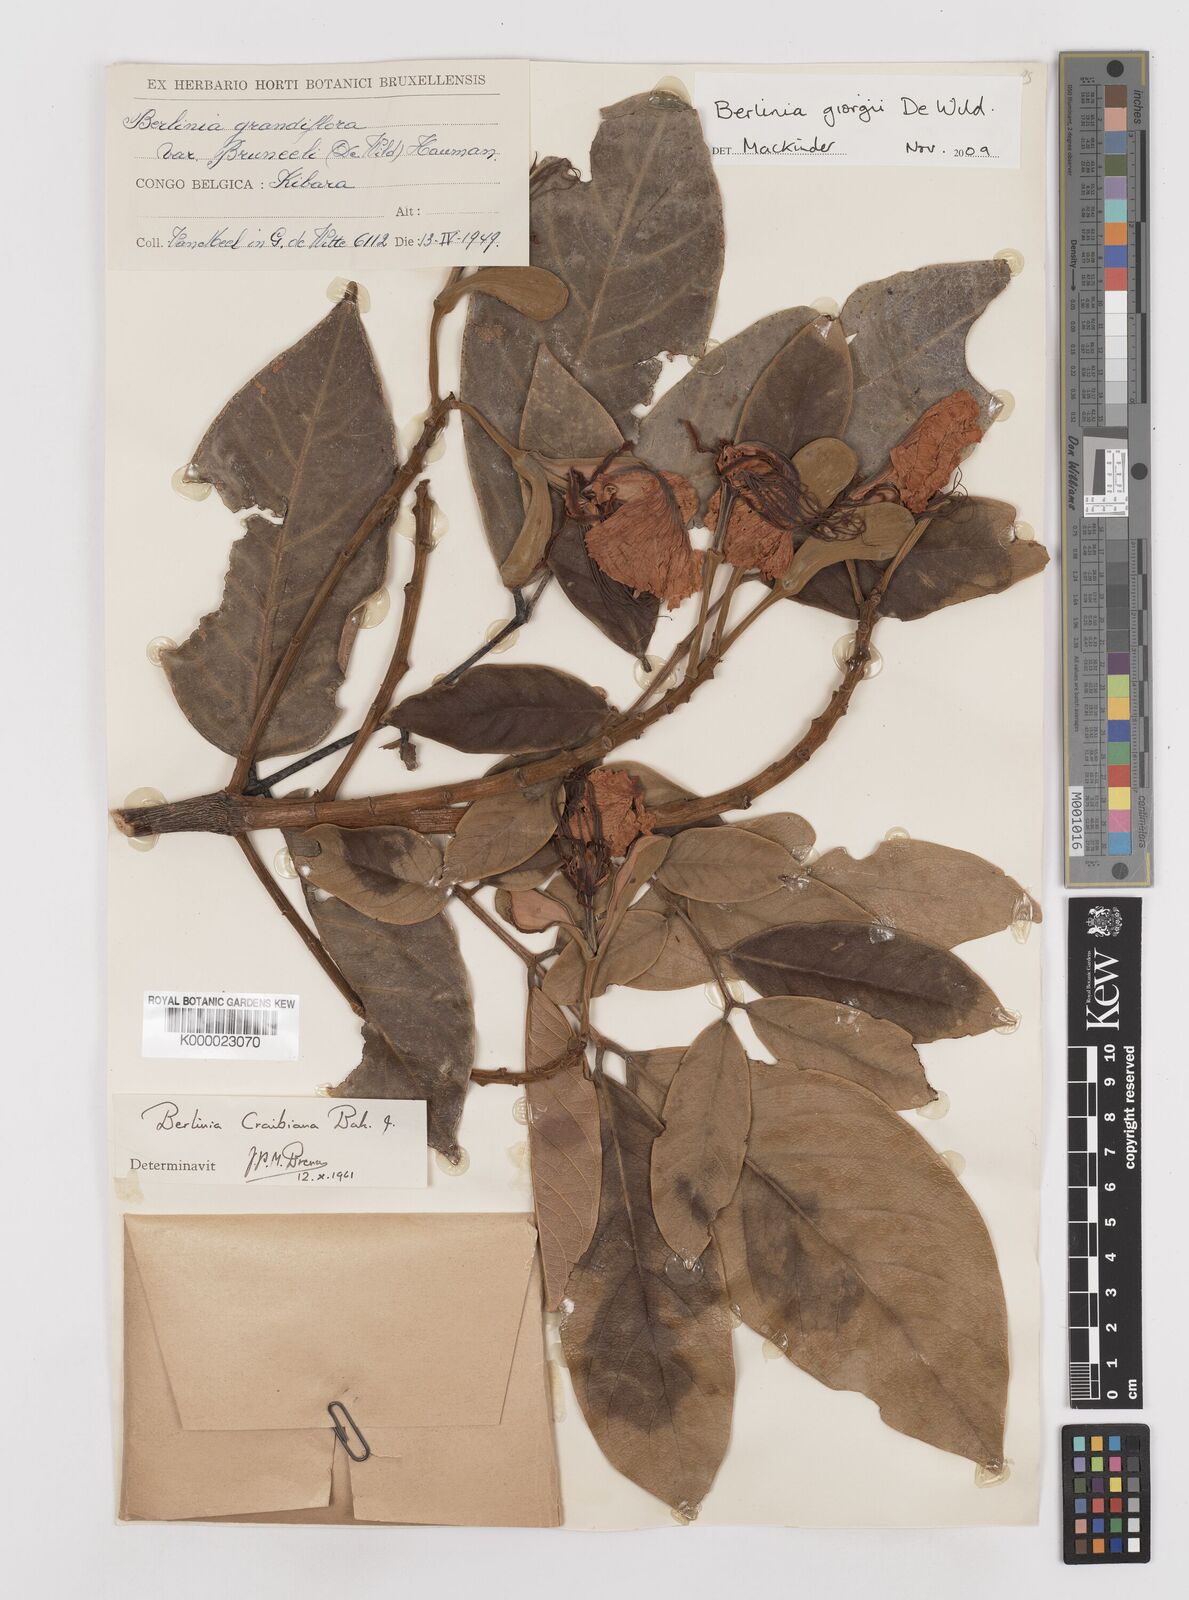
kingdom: Plantae
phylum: Tracheophyta
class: Magnoliopsida
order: Fabales
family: Fabaceae
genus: Berlinia
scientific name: Berlinia giorgii
